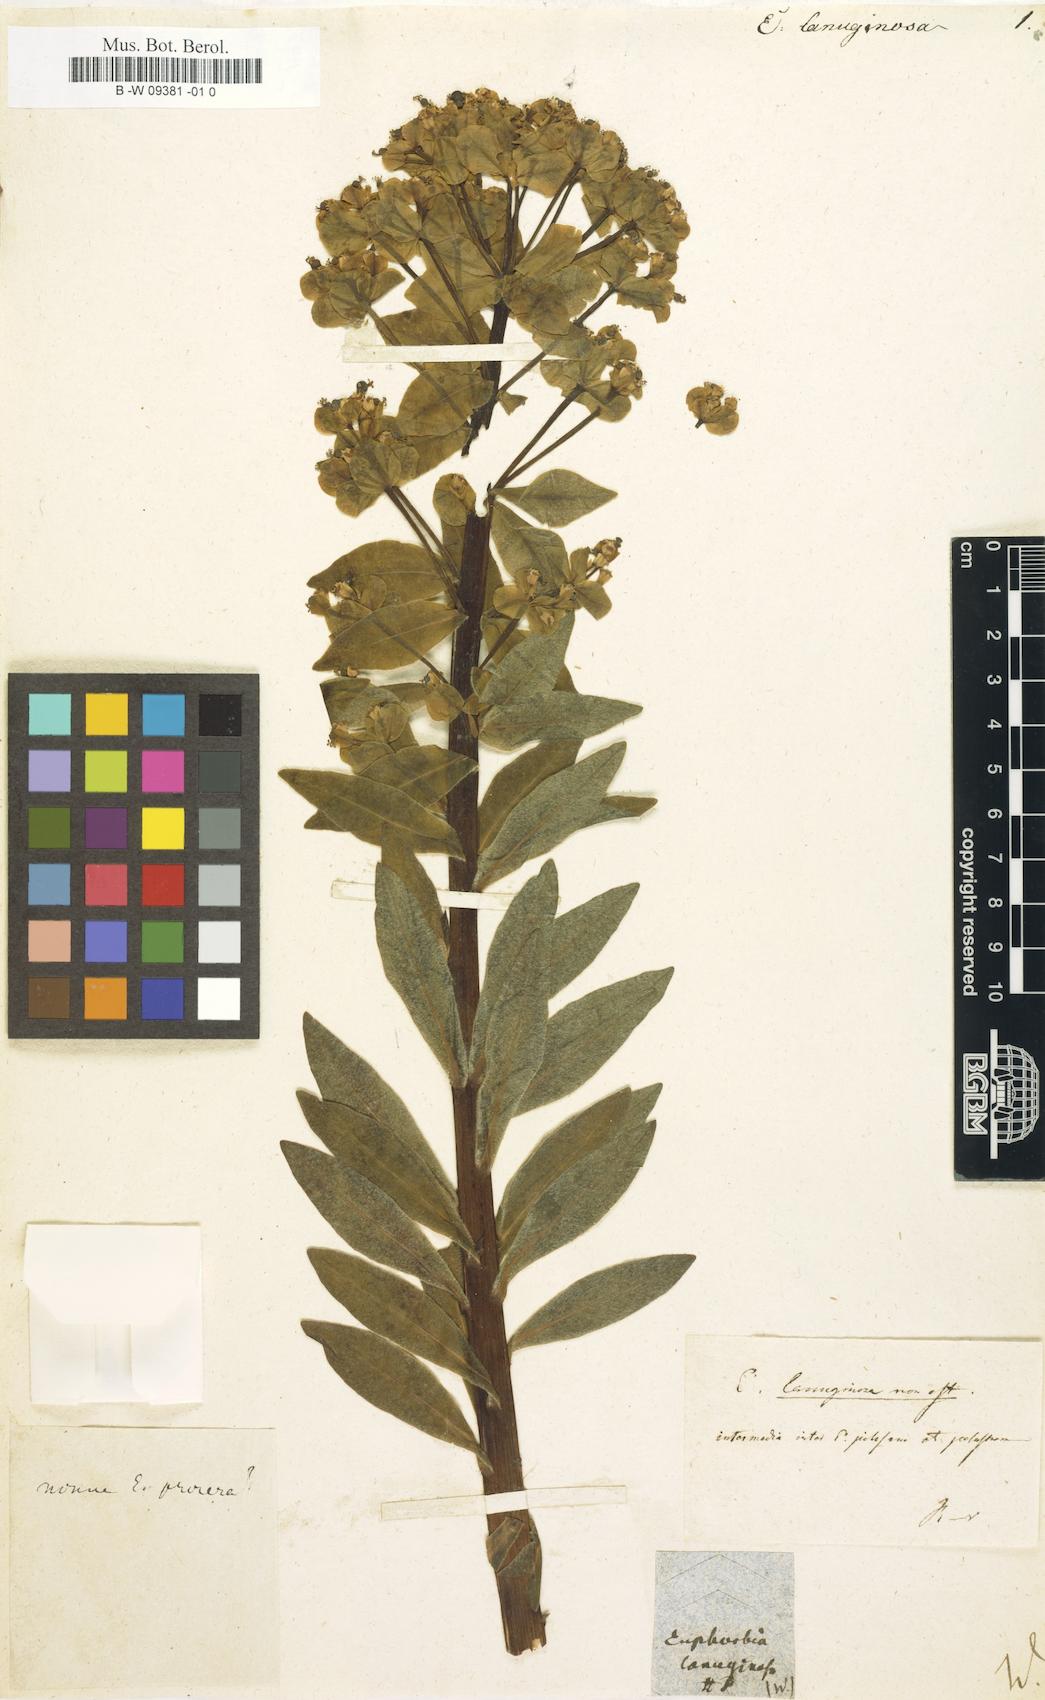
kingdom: Plantae
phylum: Tracheophyta
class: Magnoliopsida
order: Malpighiales
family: Euphorbiaceae
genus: Euphorbia
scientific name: Euphorbia dulcis
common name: Sweet spurge
